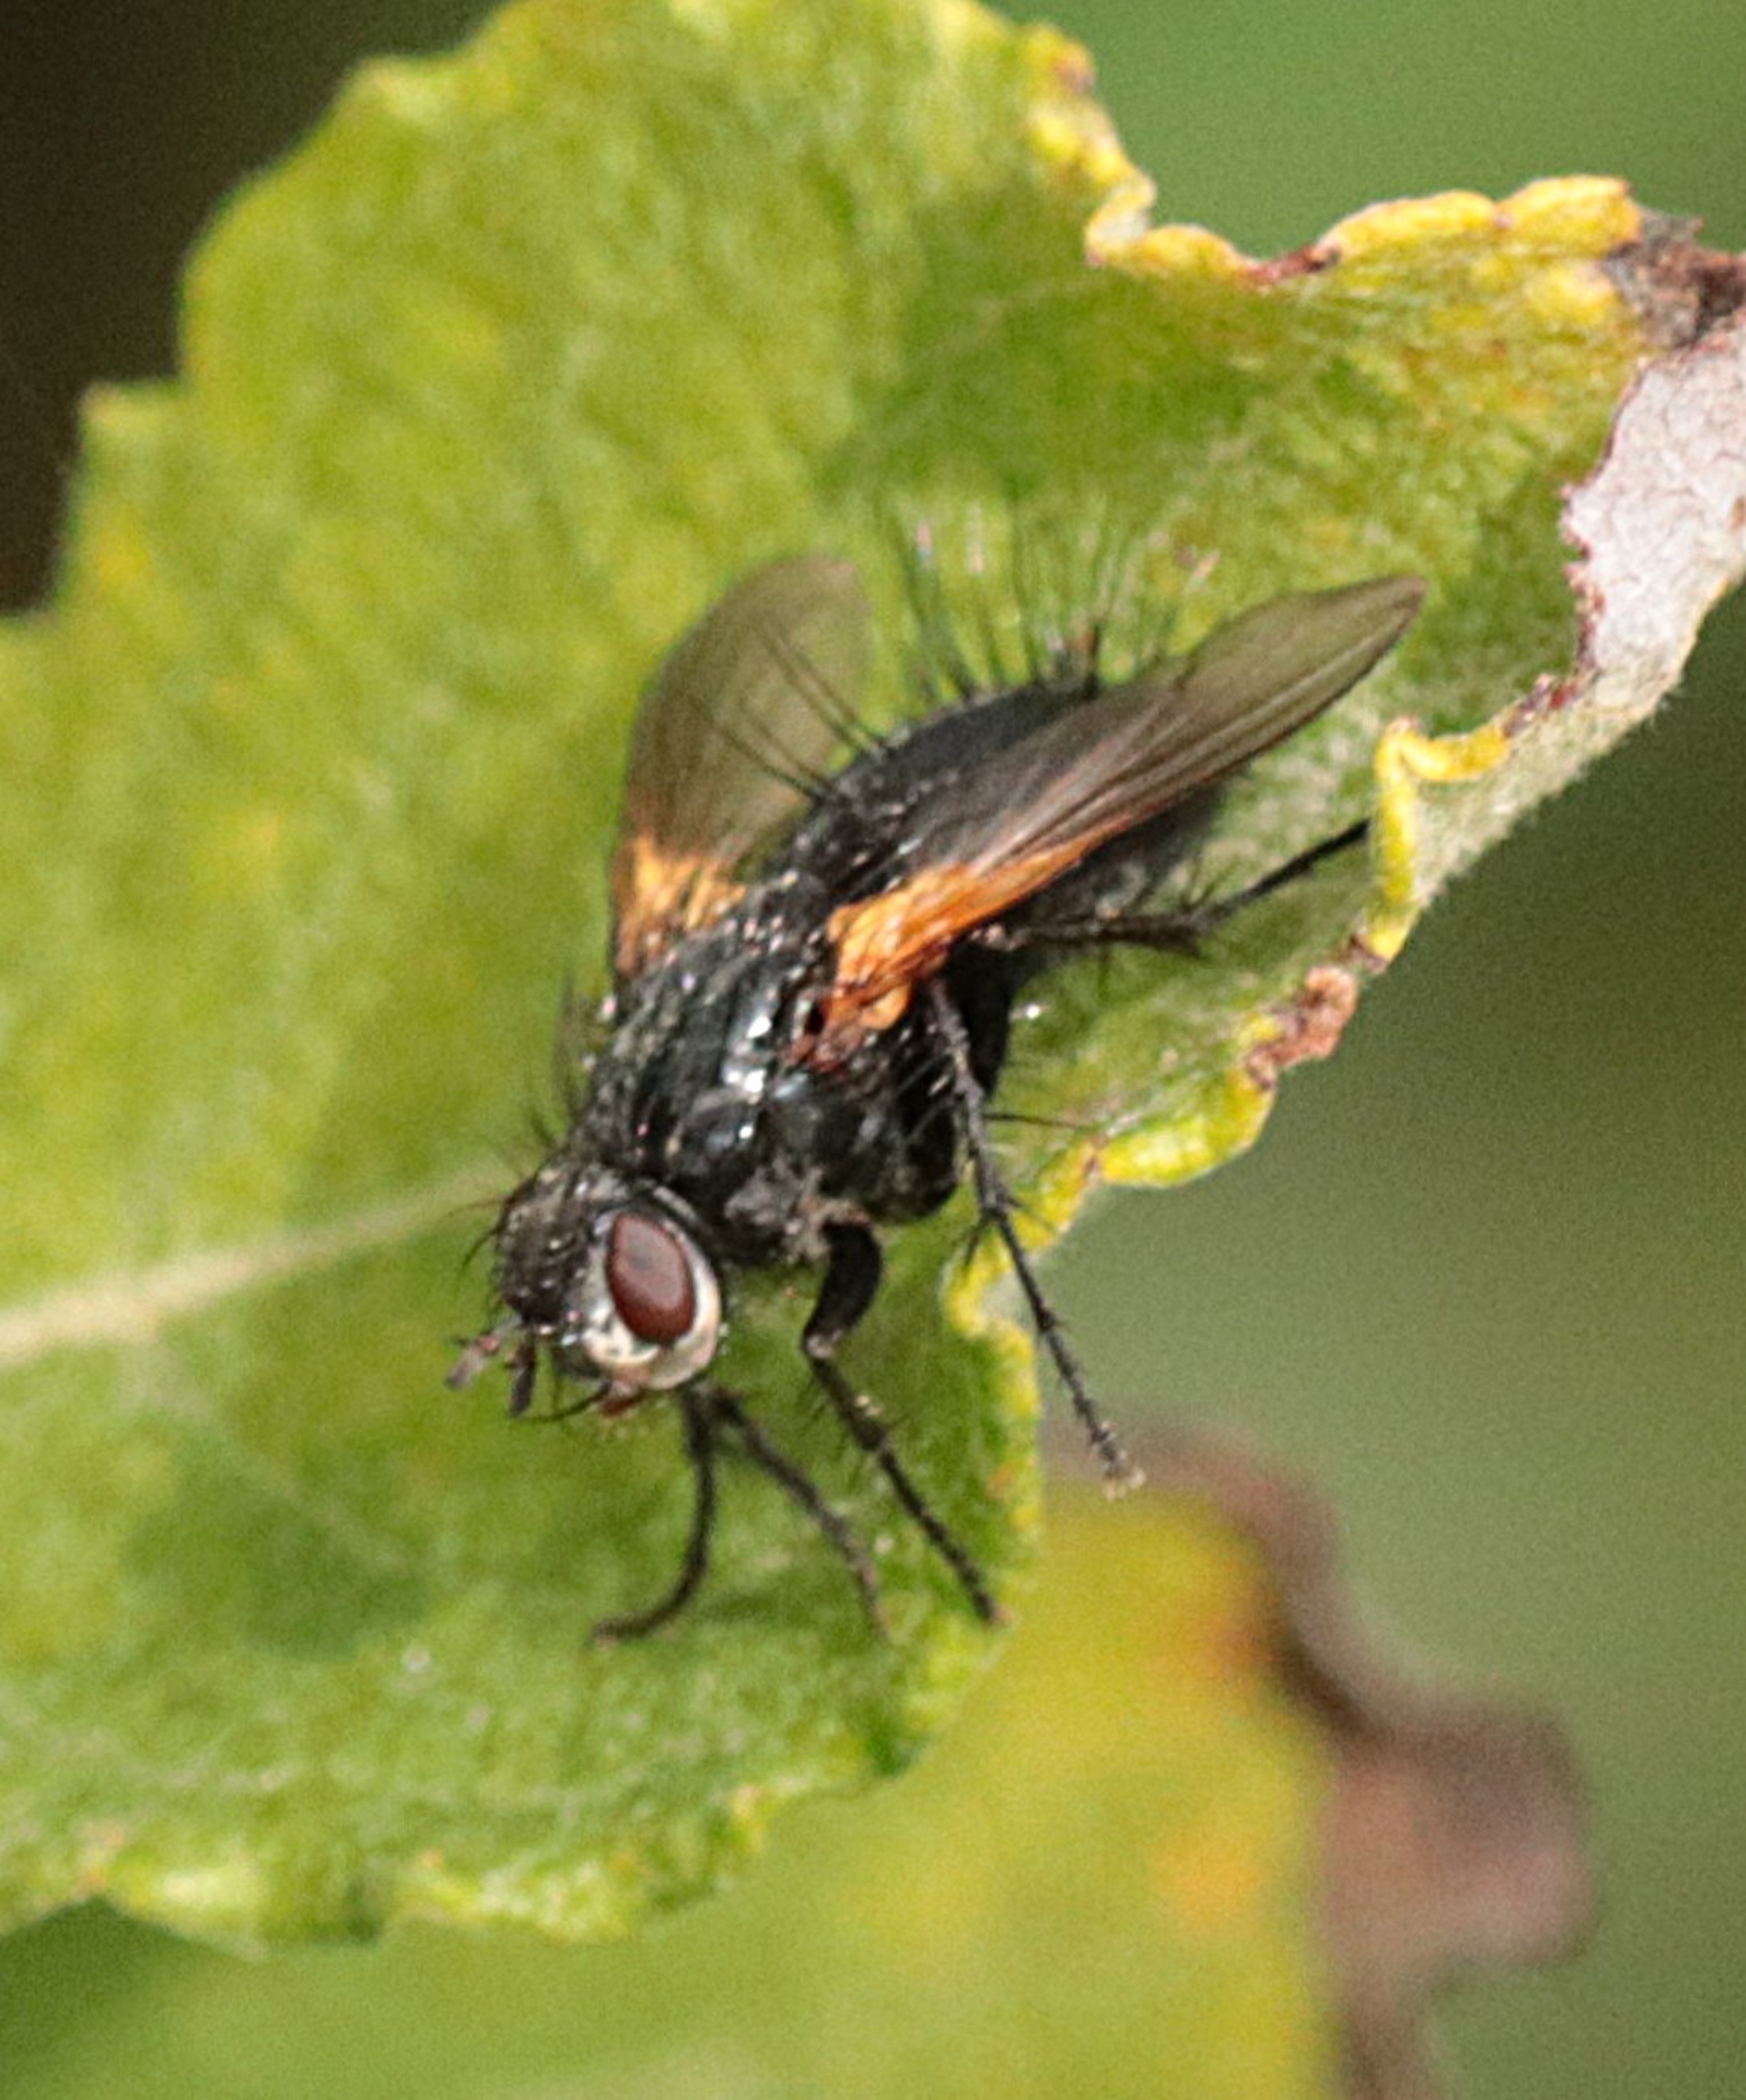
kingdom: Animalia
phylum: Arthropoda
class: Insecta
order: Diptera
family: Tachinidae
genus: Zophomyia
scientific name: Zophomyia temula
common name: Gulvinget snylteflue
